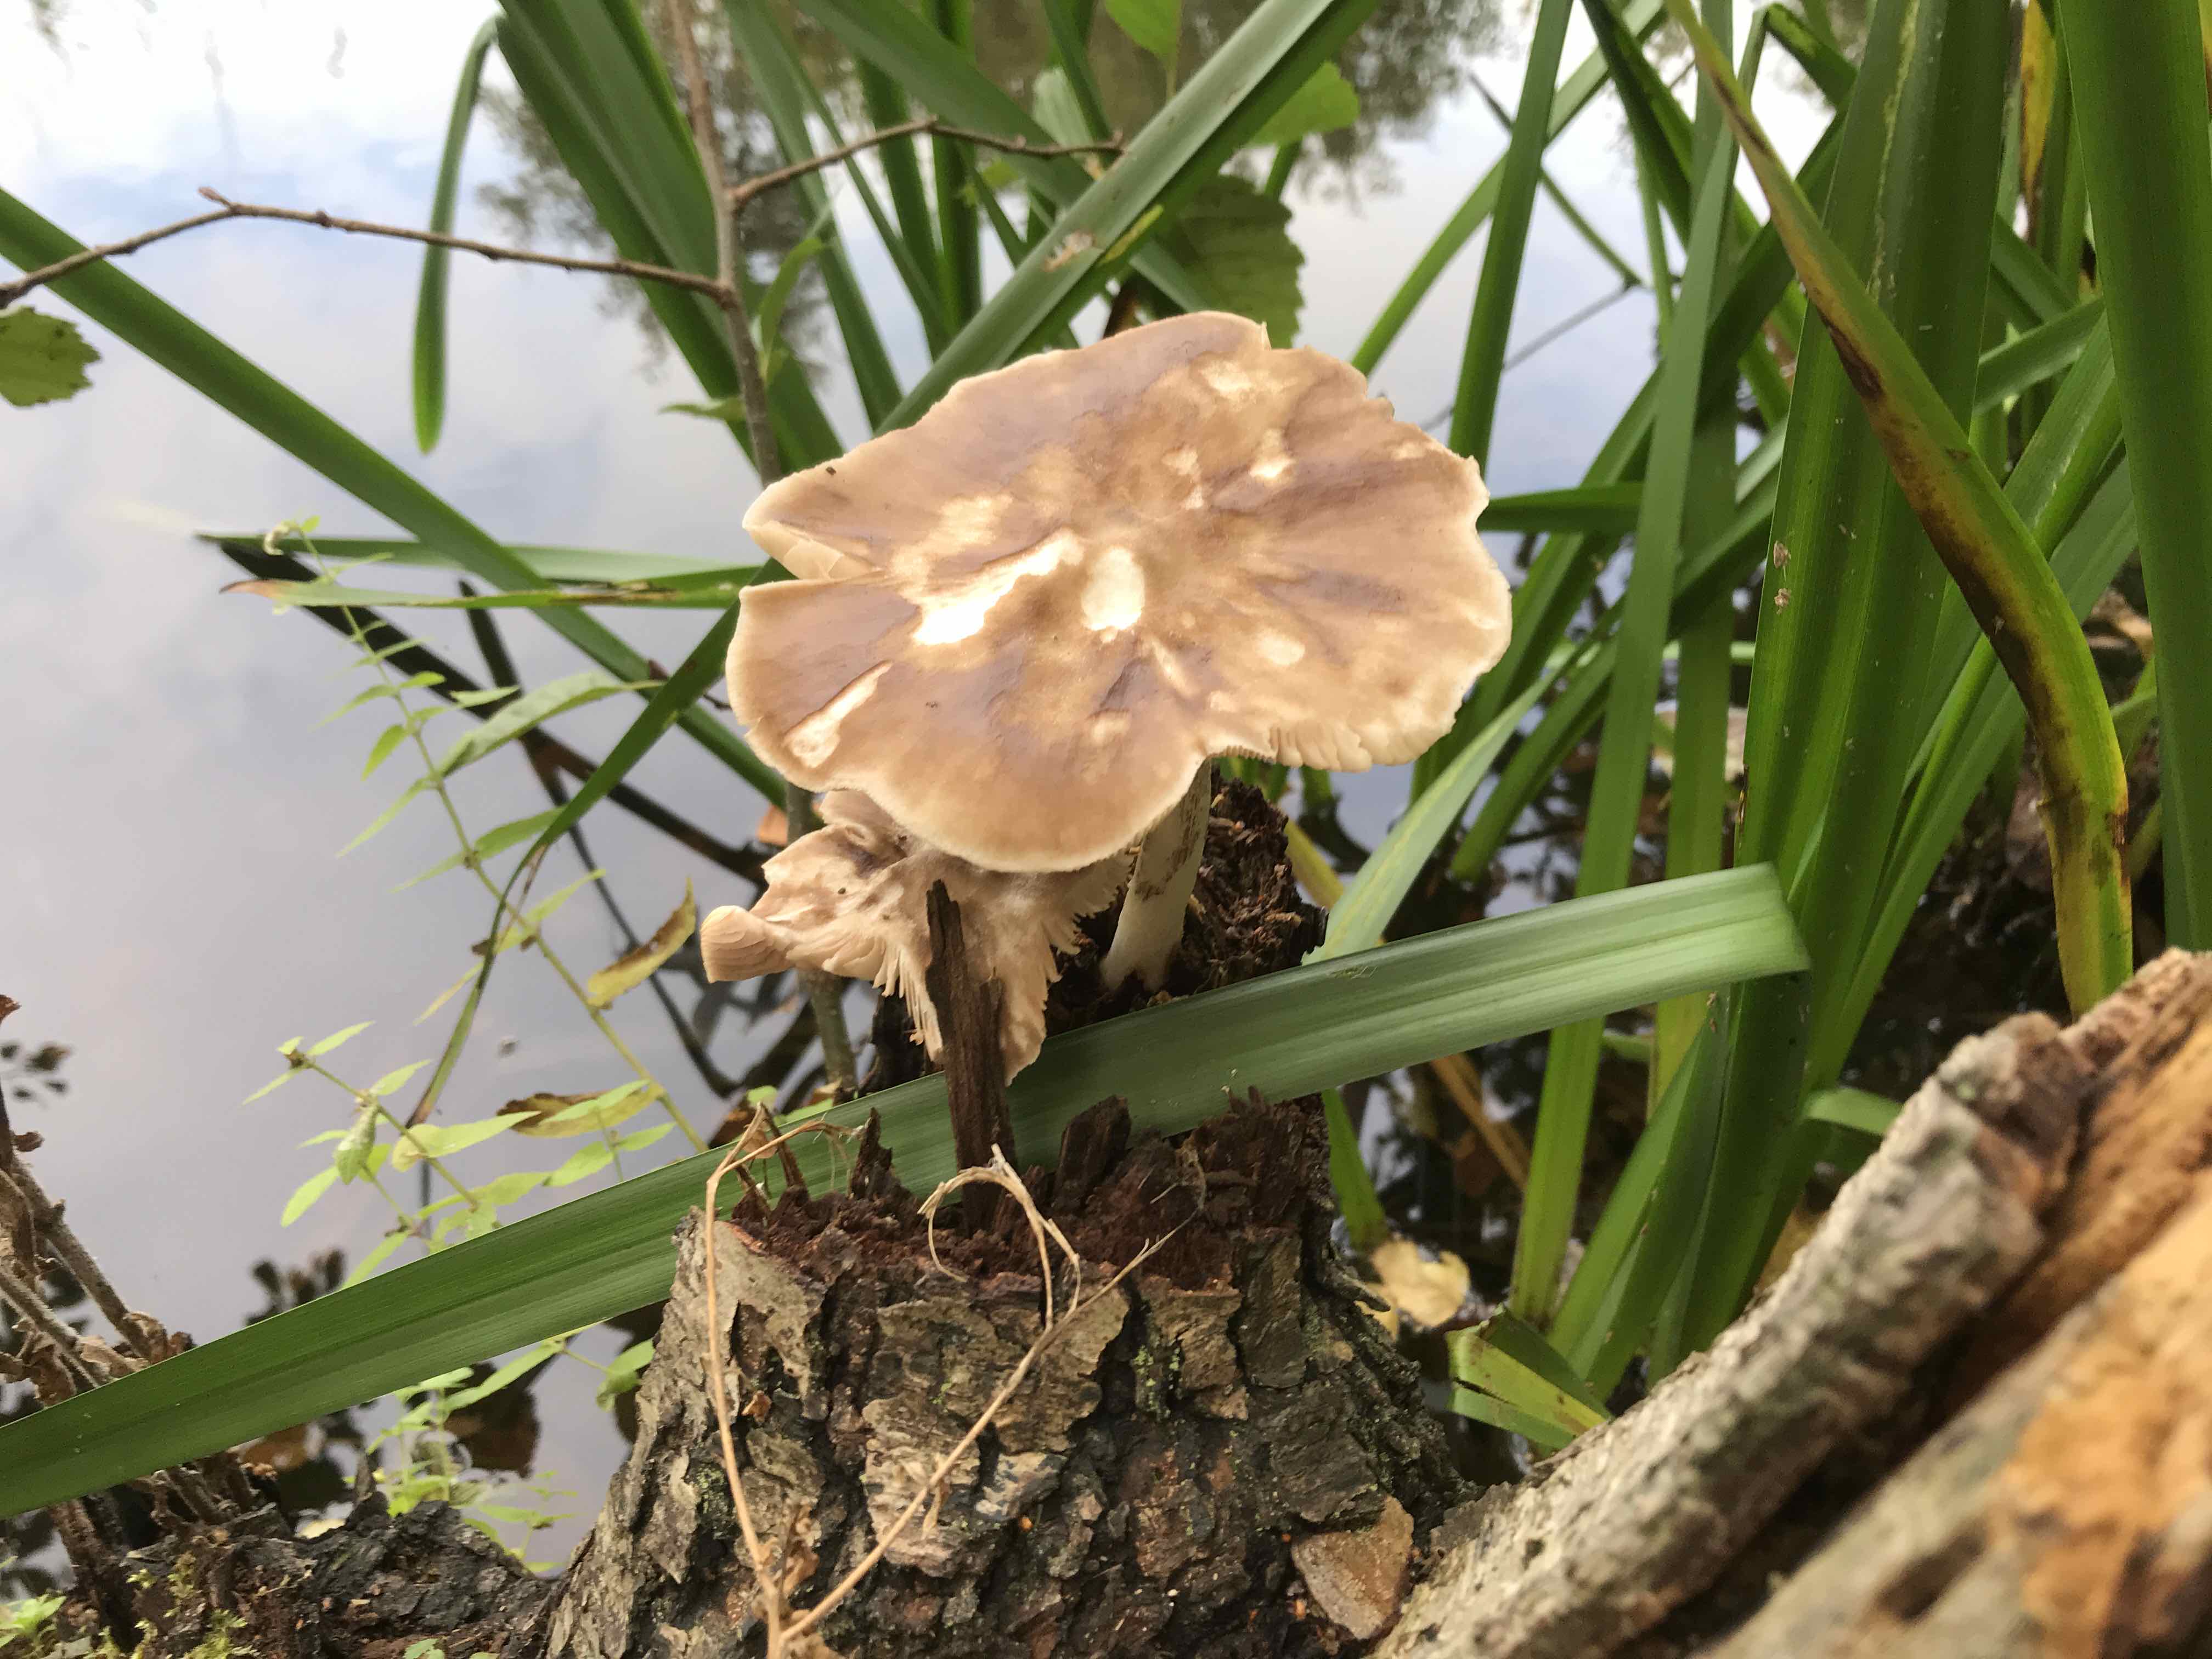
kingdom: Fungi
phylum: Basidiomycota
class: Agaricomycetes
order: Agaricales
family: Pluteaceae
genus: Pluteus
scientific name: Pluteus cervinus
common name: sodfarvet skærmhat
